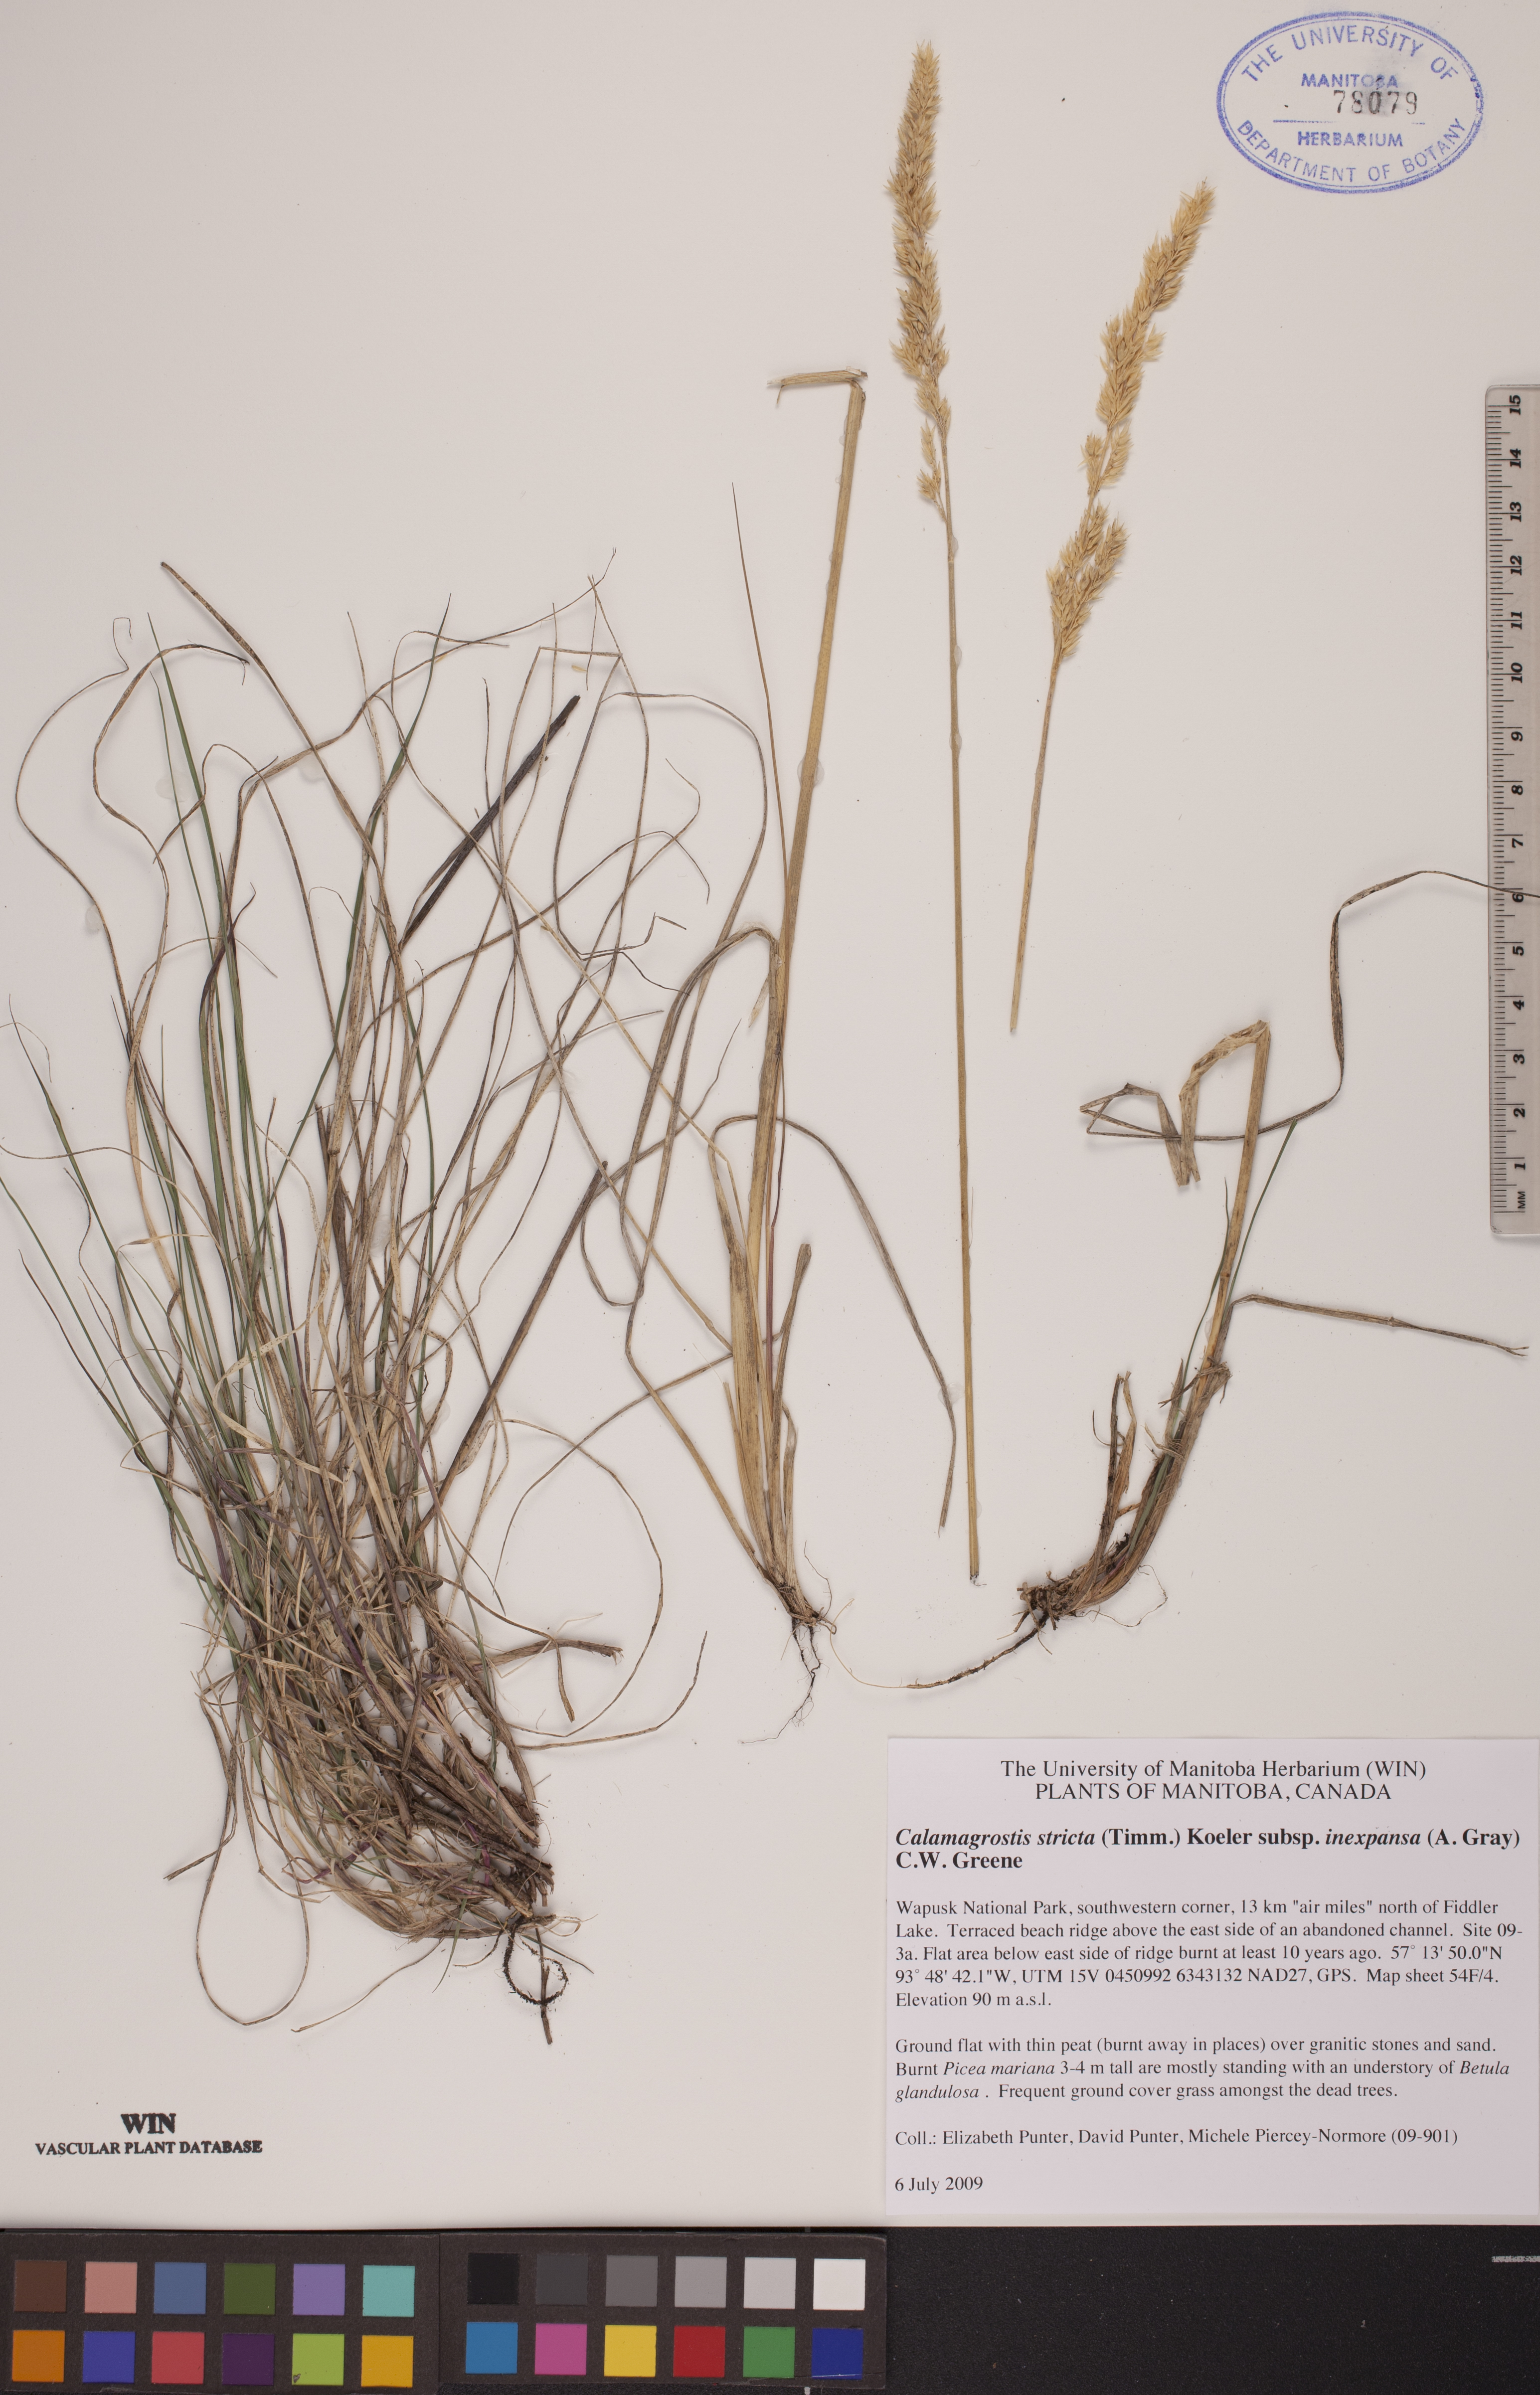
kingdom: Plantae
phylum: Tracheophyta
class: Liliopsida
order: Poales
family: Poaceae
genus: Calamagrostis
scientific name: Calamagrostis inexpansa
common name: Northern reedgrass
